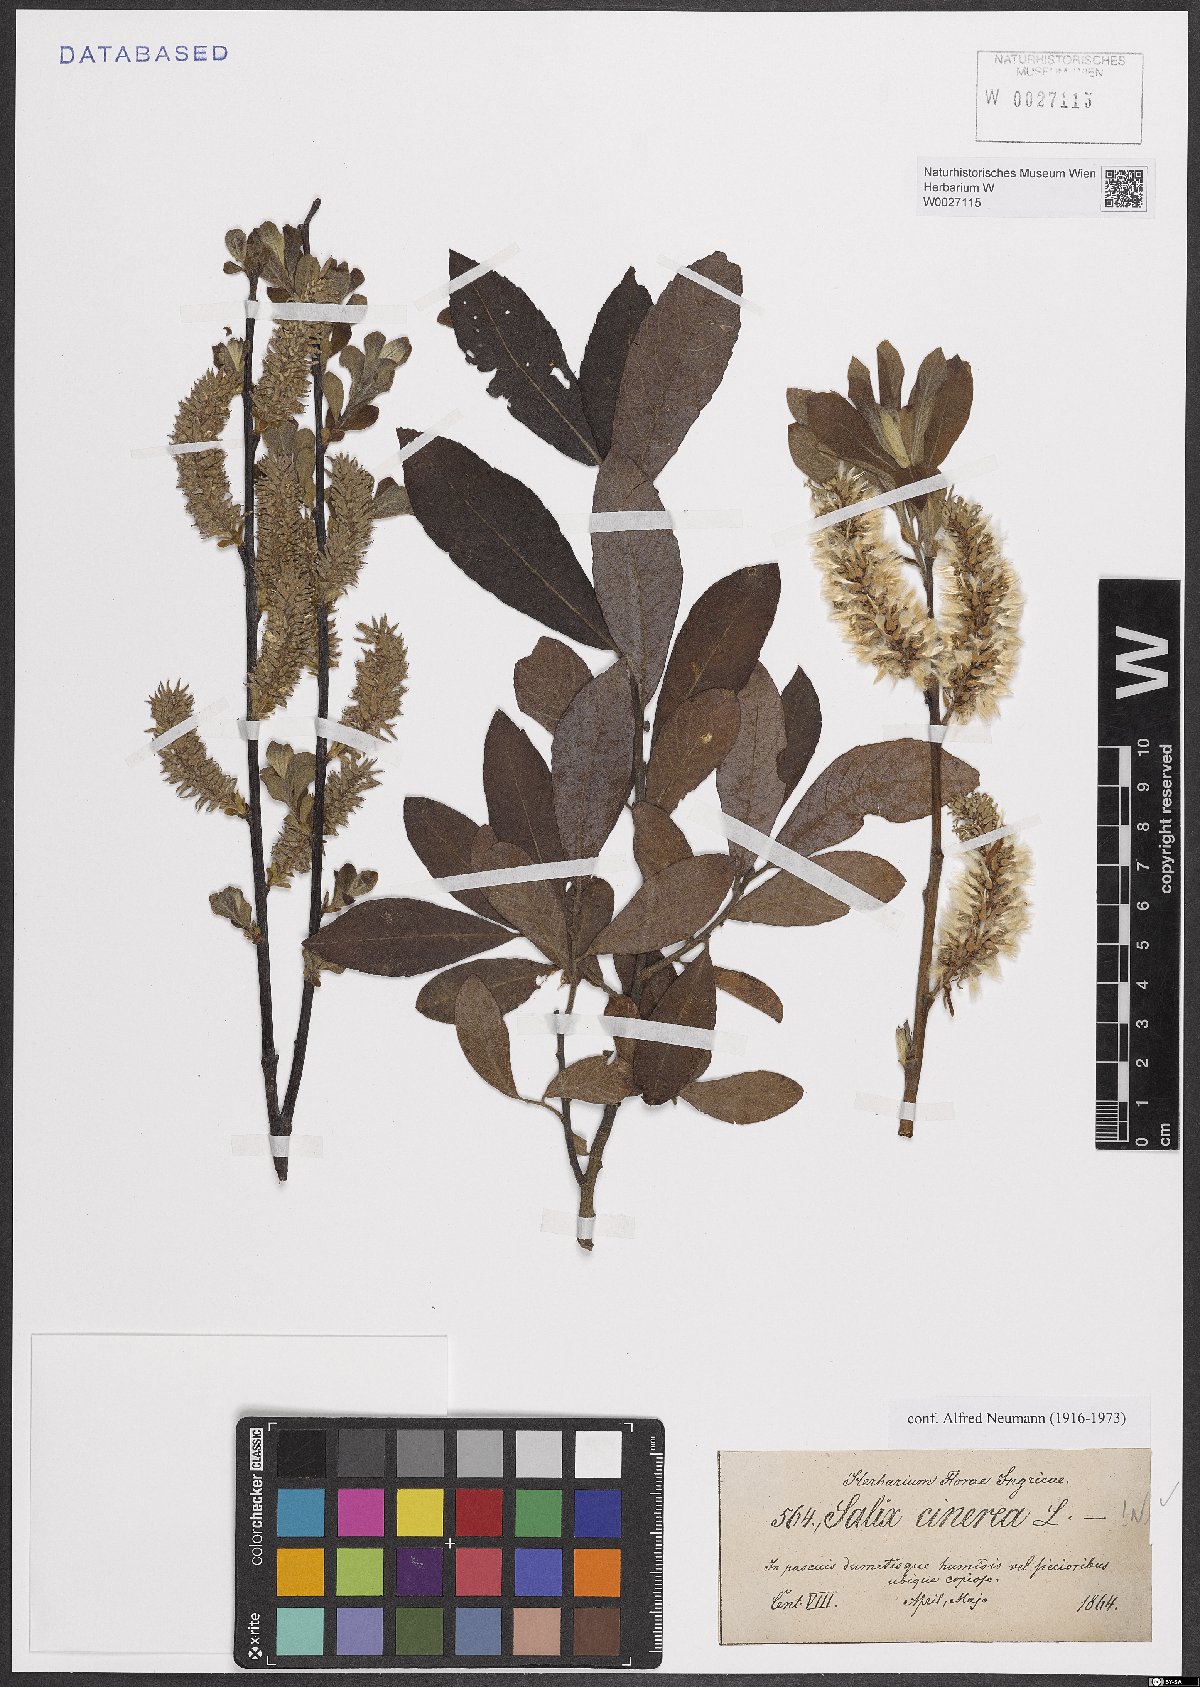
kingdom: Plantae
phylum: Tracheophyta
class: Magnoliopsida
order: Malpighiales
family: Salicaceae
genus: Salix
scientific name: Salix cinerea
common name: Common sallow
